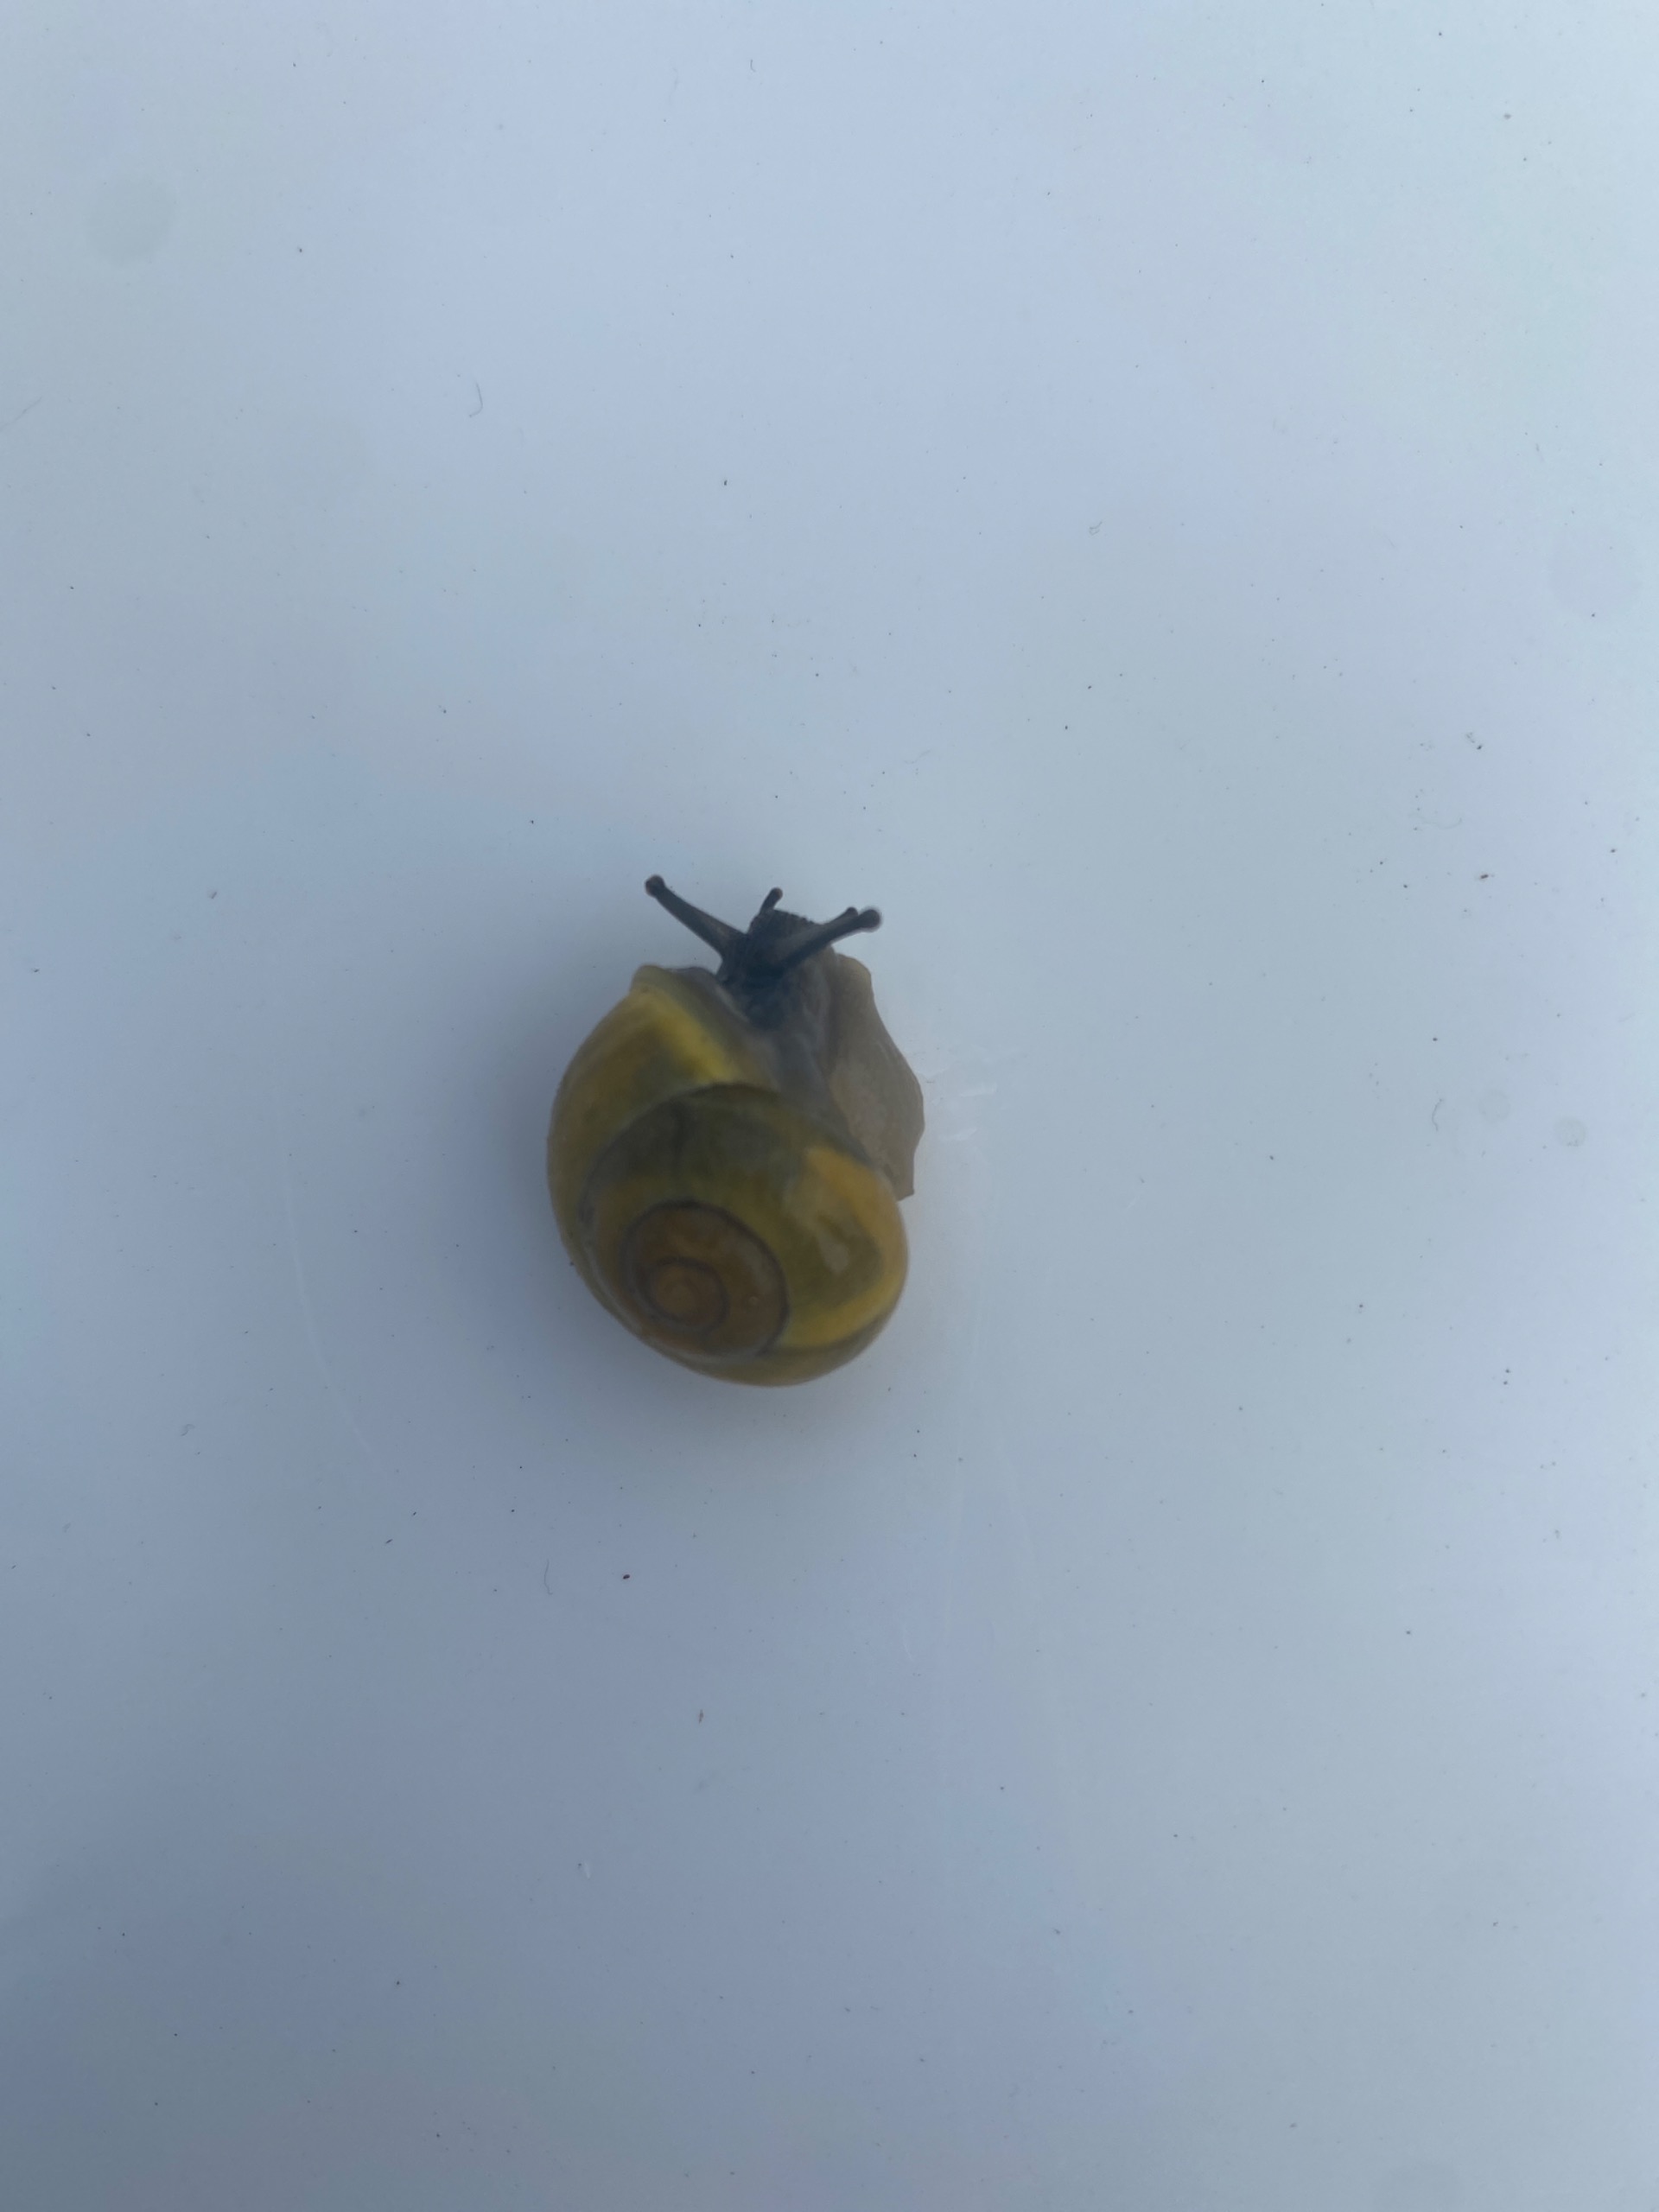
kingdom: Animalia
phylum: Mollusca
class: Gastropoda
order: Stylommatophora
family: Helicidae
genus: Cepaea
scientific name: Cepaea hortensis
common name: Havesnegl
